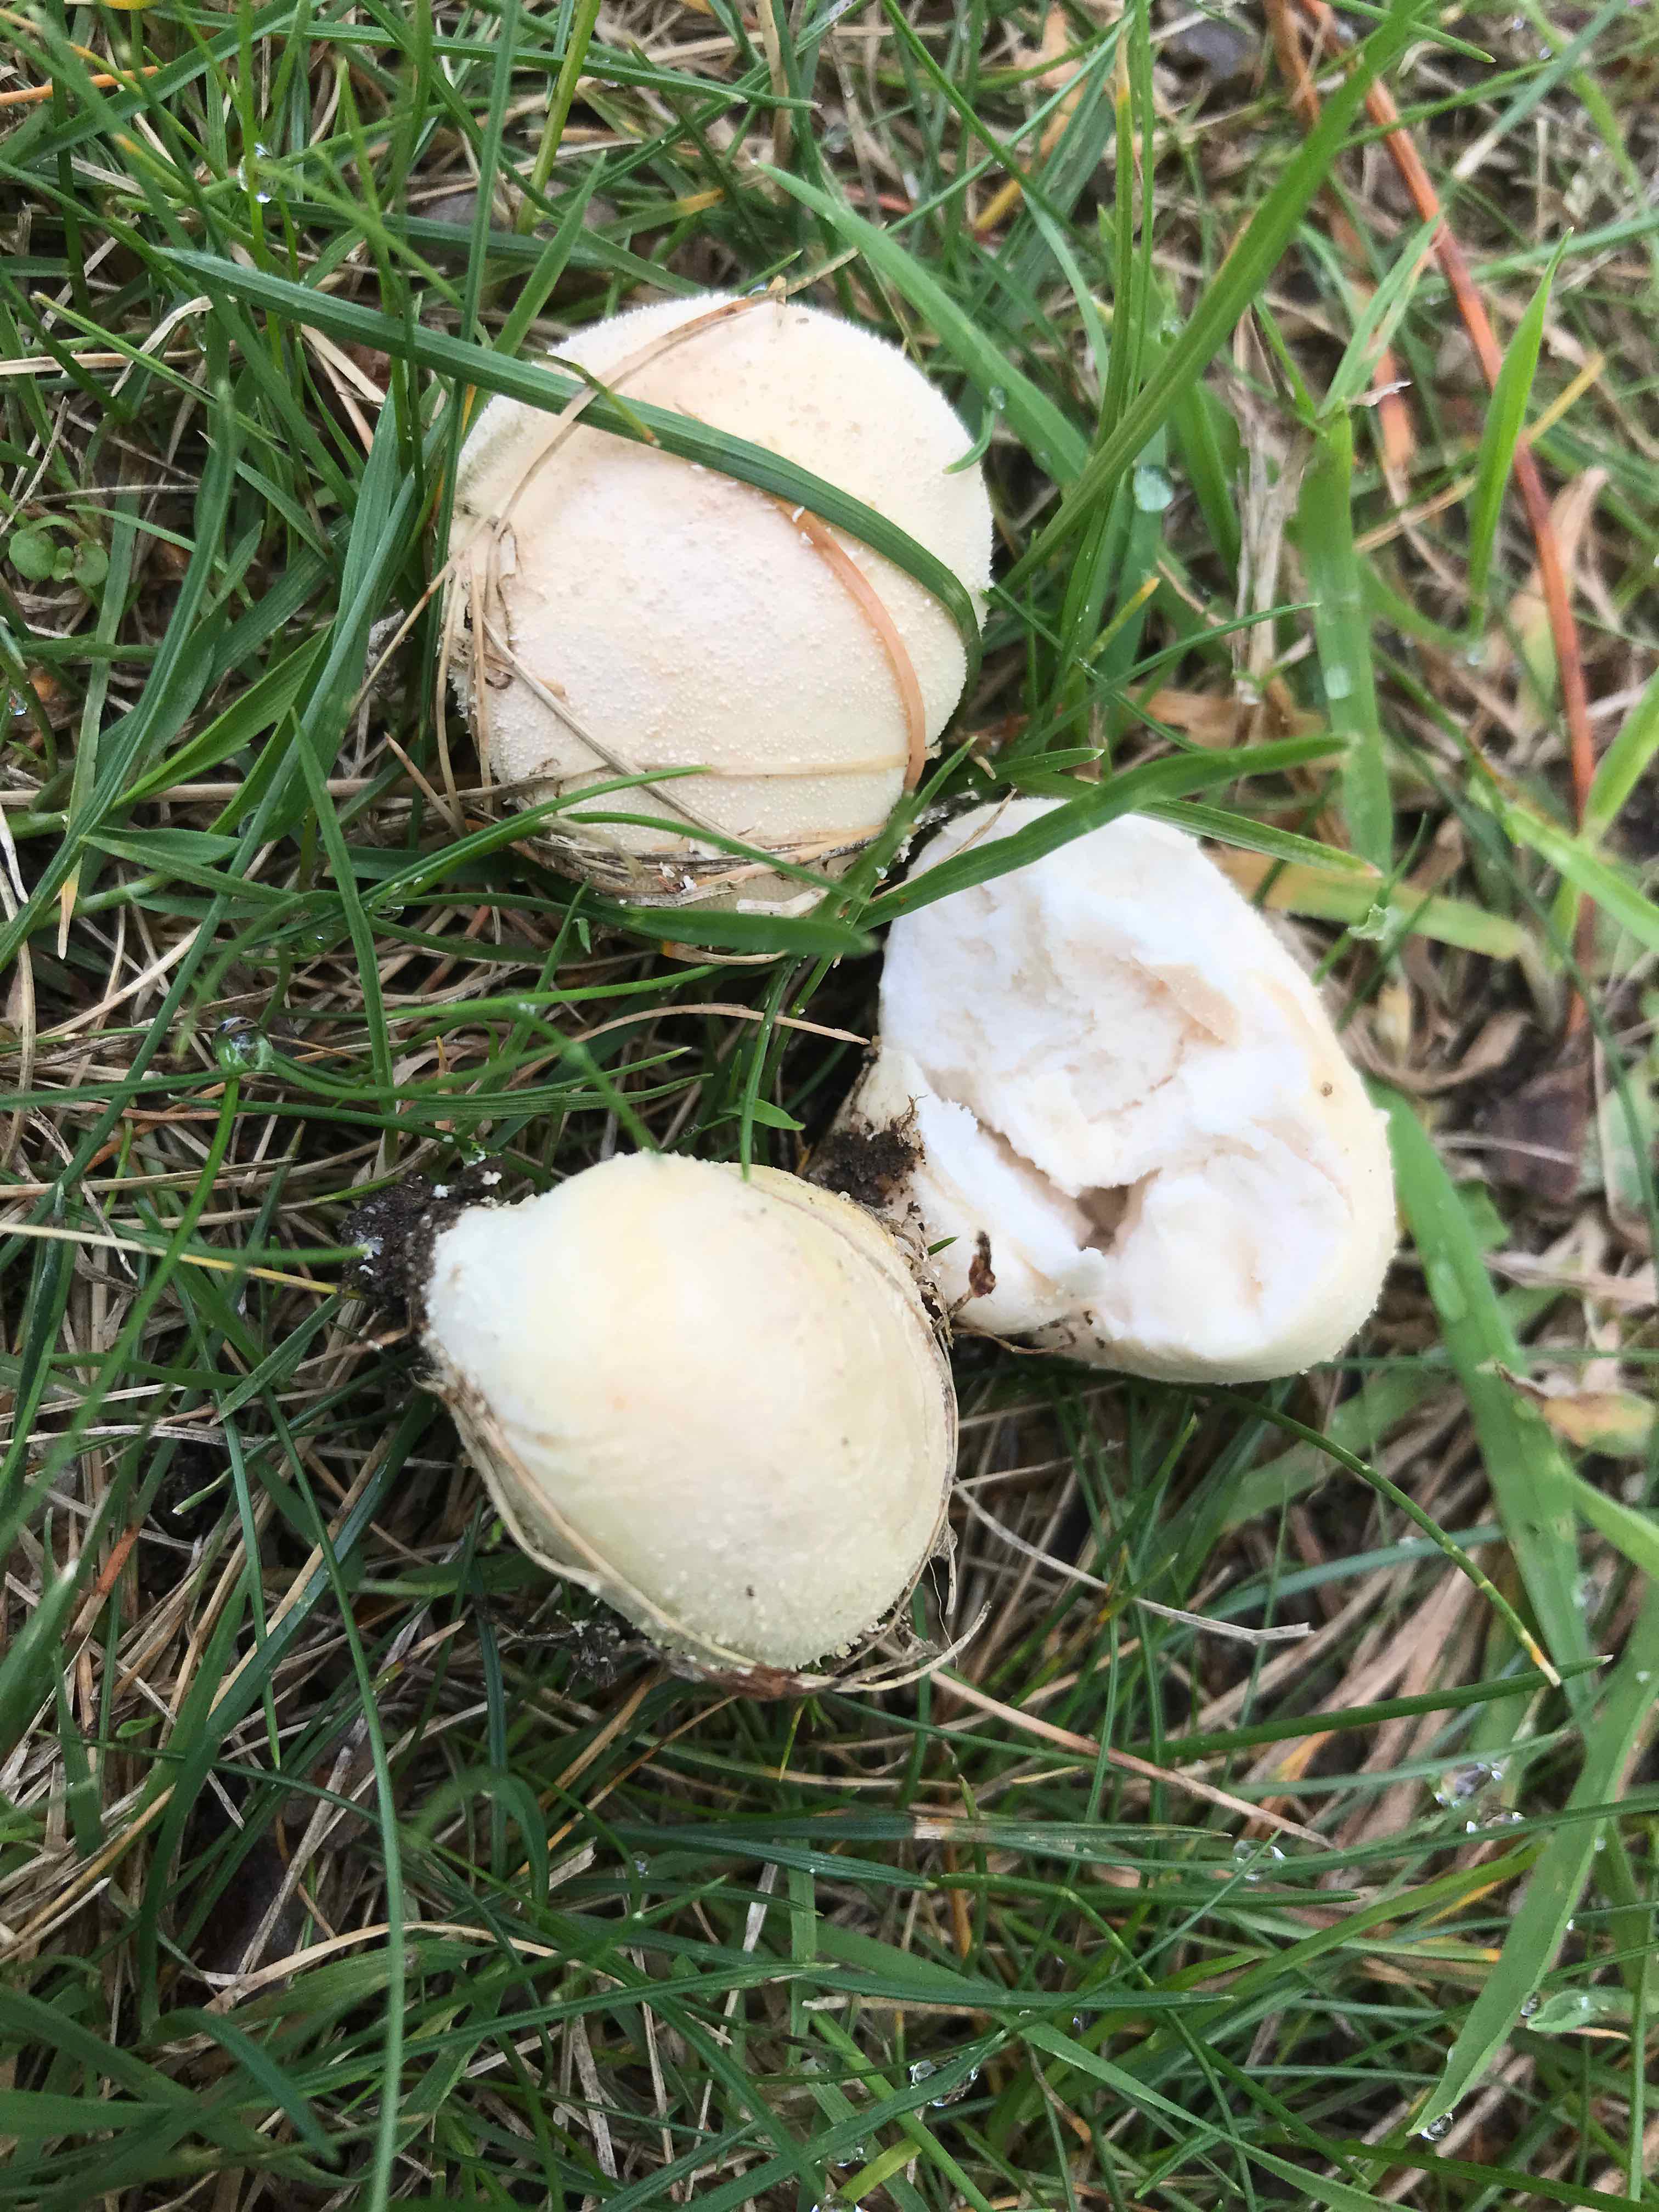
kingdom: Fungi
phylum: Basidiomycota
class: Agaricomycetes
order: Agaricales
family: Lycoperdaceae
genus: Lycoperdon
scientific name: Lycoperdon pratense
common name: flad støvbold
